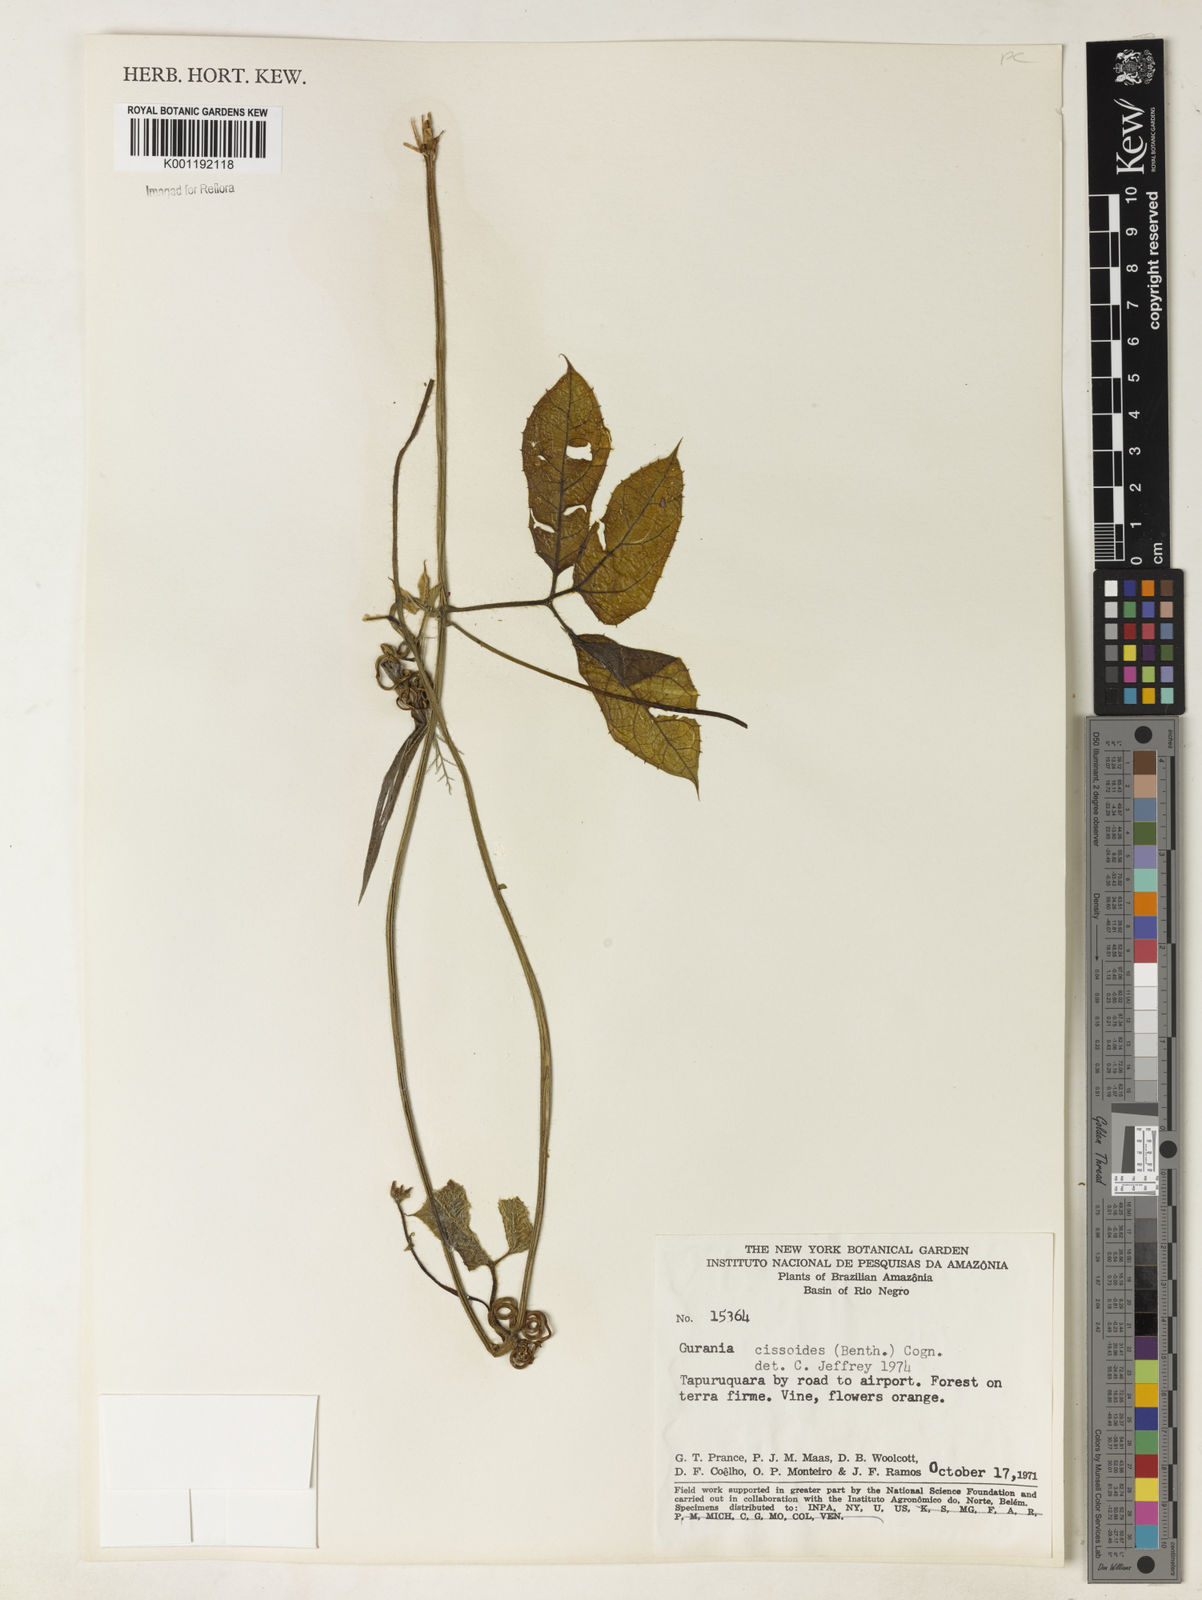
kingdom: Plantae
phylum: Tracheophyta
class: Magnoliopsida
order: Cucurbitales
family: Cucurbitaceae
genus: Gurania
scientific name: Gurania bignoniacea
